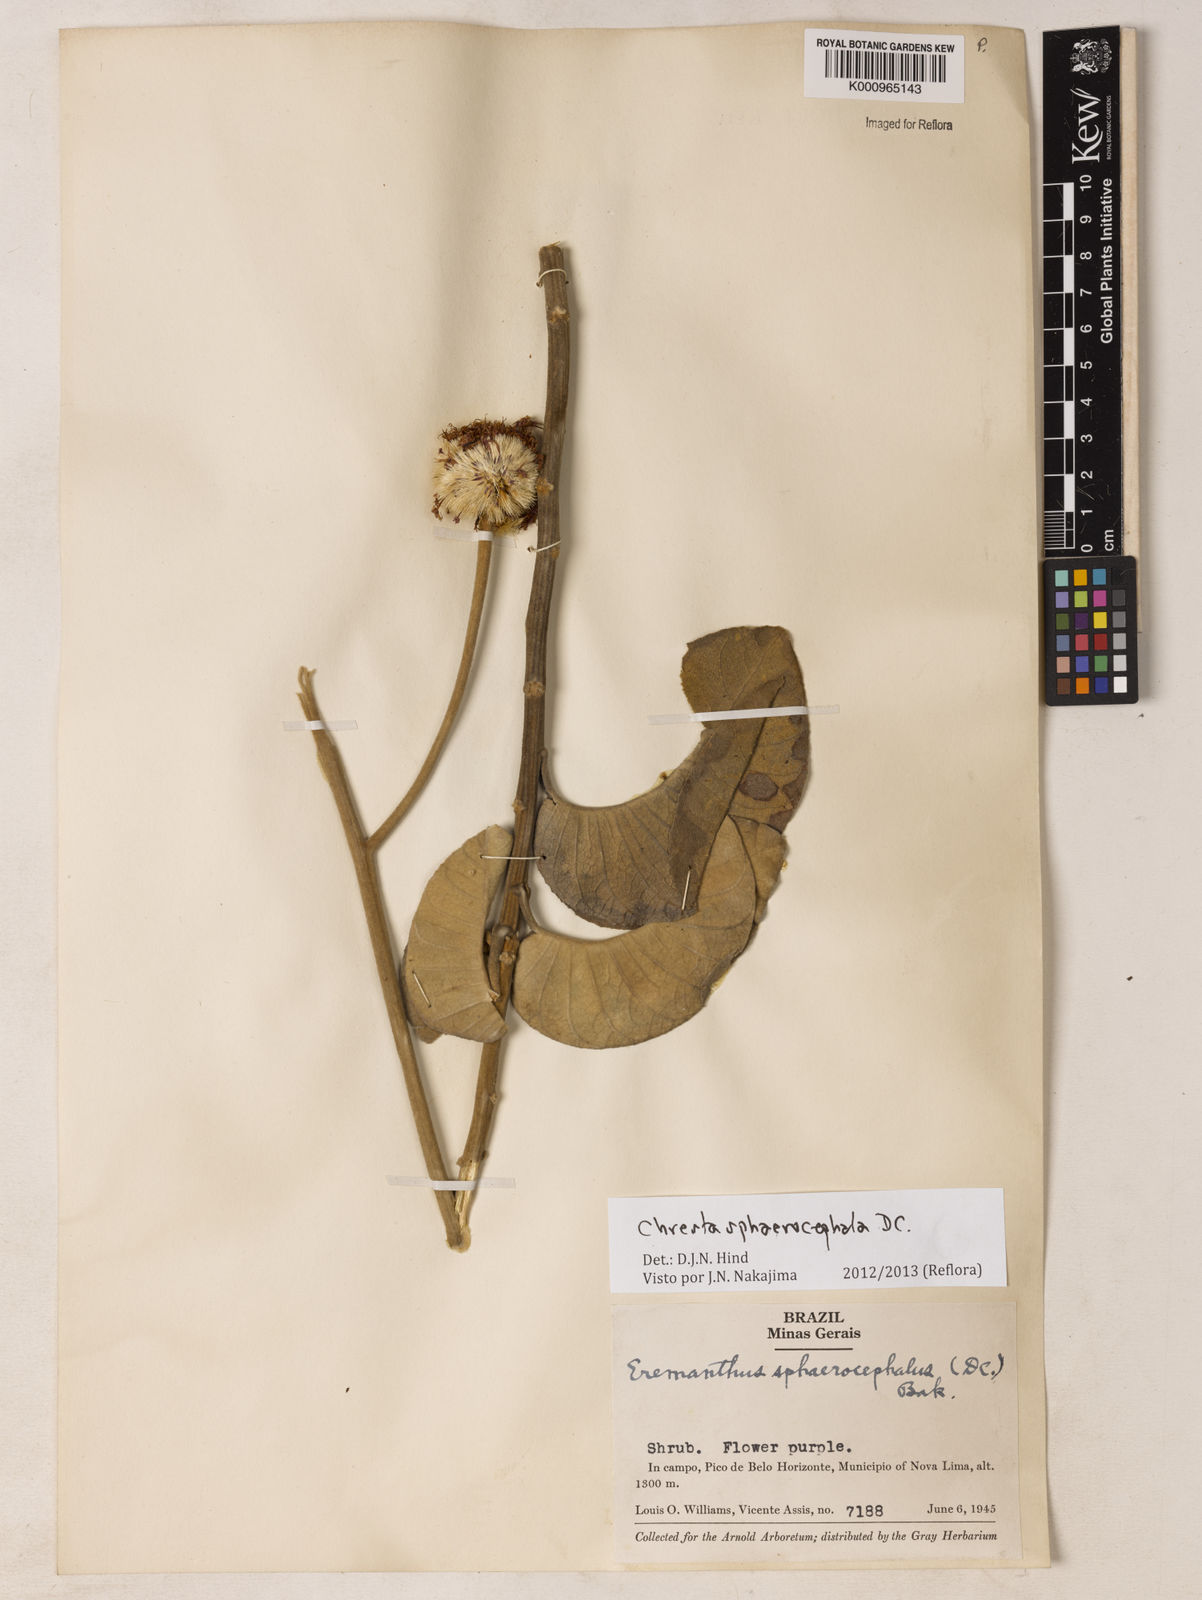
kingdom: Plantae
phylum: Tracheophyta
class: Magnoliopsida
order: Asterales
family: Asteraceae
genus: Chresta
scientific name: Chresta sphaerocephala
